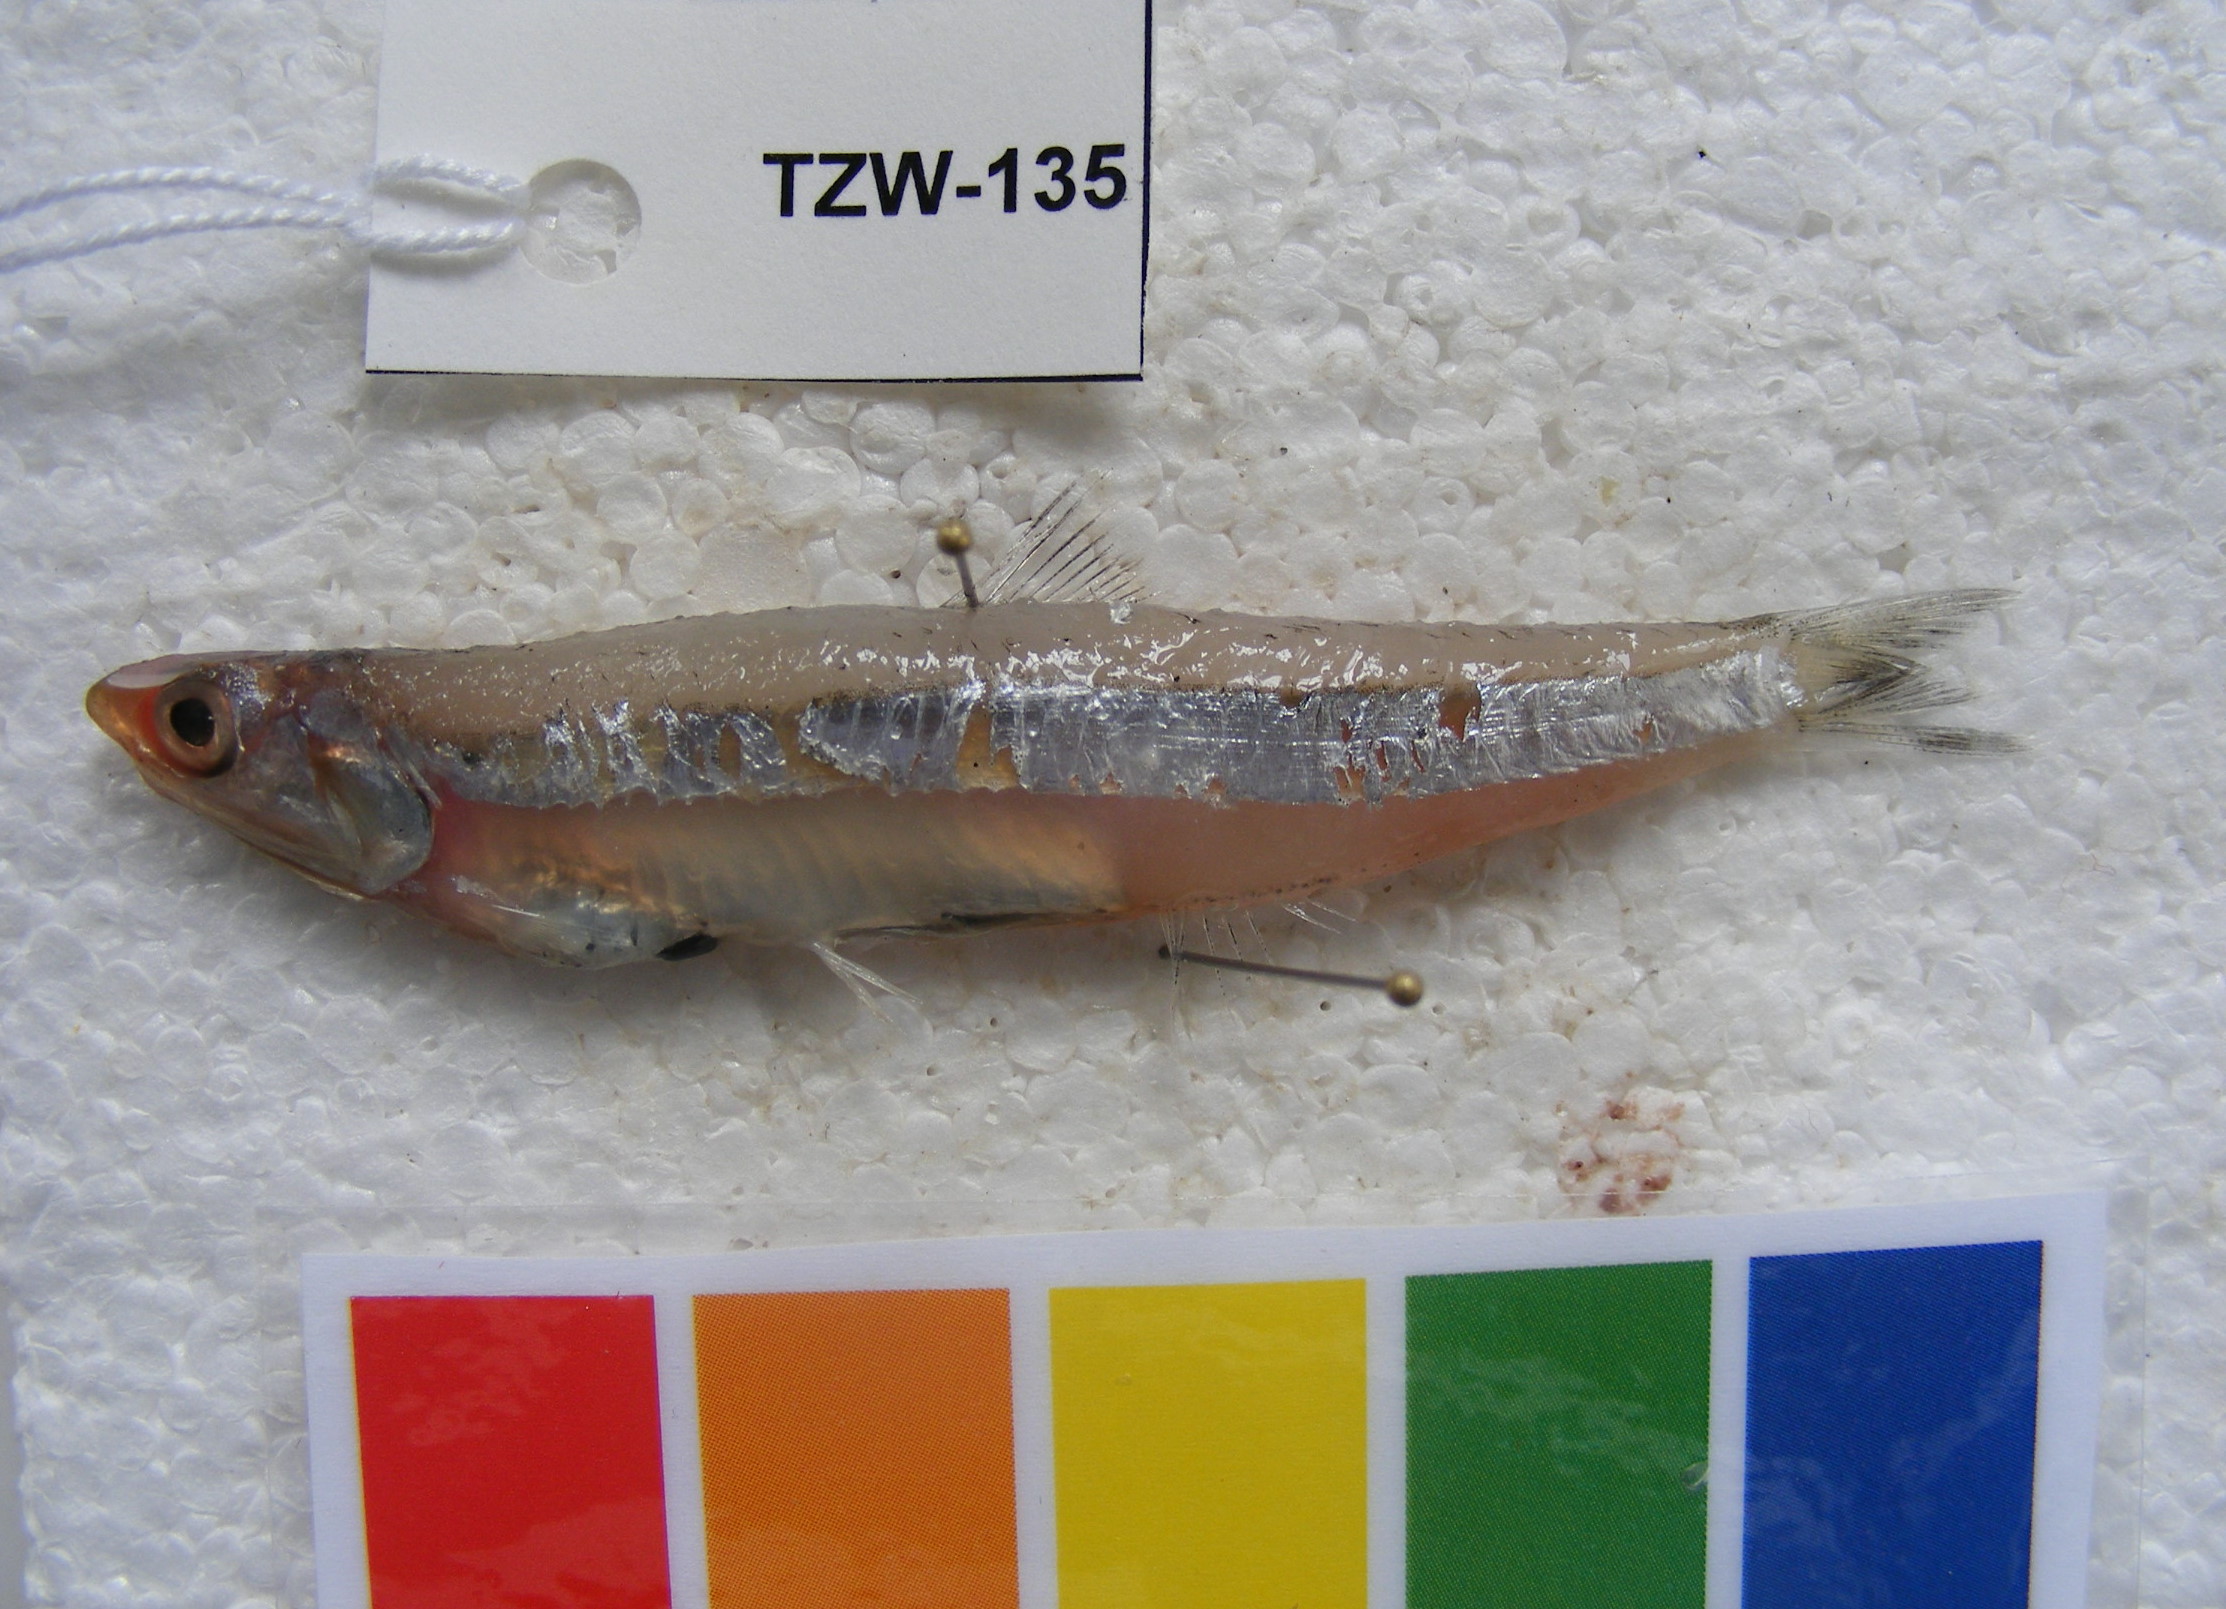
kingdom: Animalia
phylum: Chordata
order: Clupeiformes
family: Engraulidae
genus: Engraulis
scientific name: Engraulis japonicus
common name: Japanese anchovy
